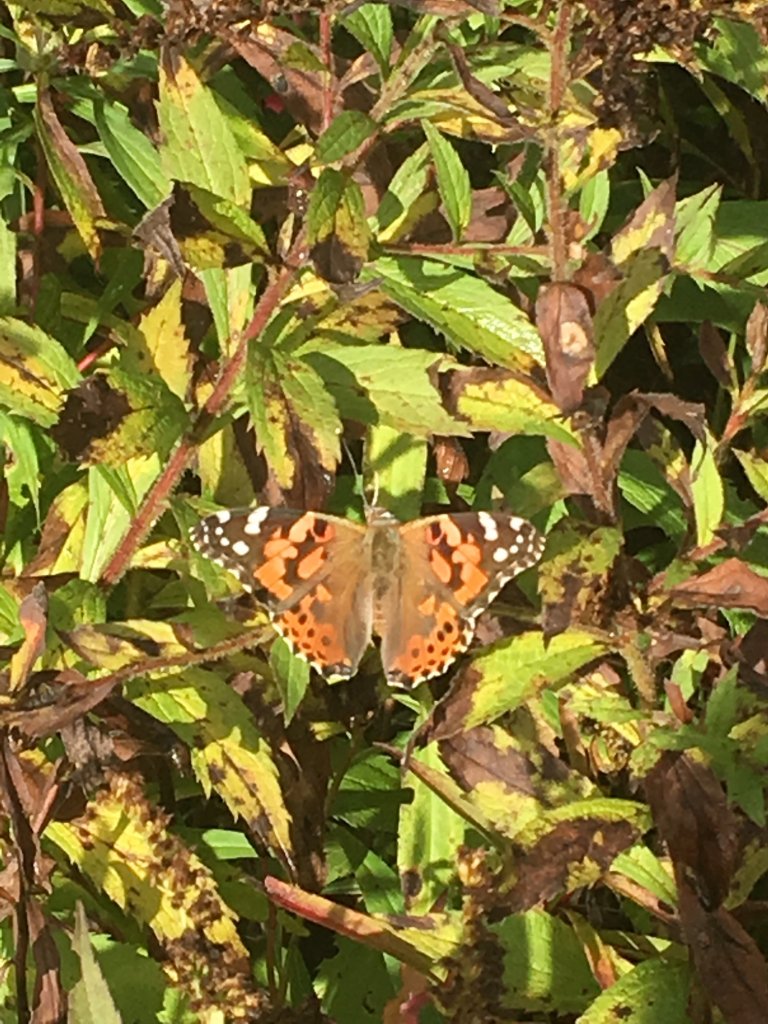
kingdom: Animalia
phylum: Arthropoda
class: Insecta
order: Lepidoptera
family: Nymphalidae
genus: Vanessa
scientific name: Vanessa cardui
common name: Painted Lady
